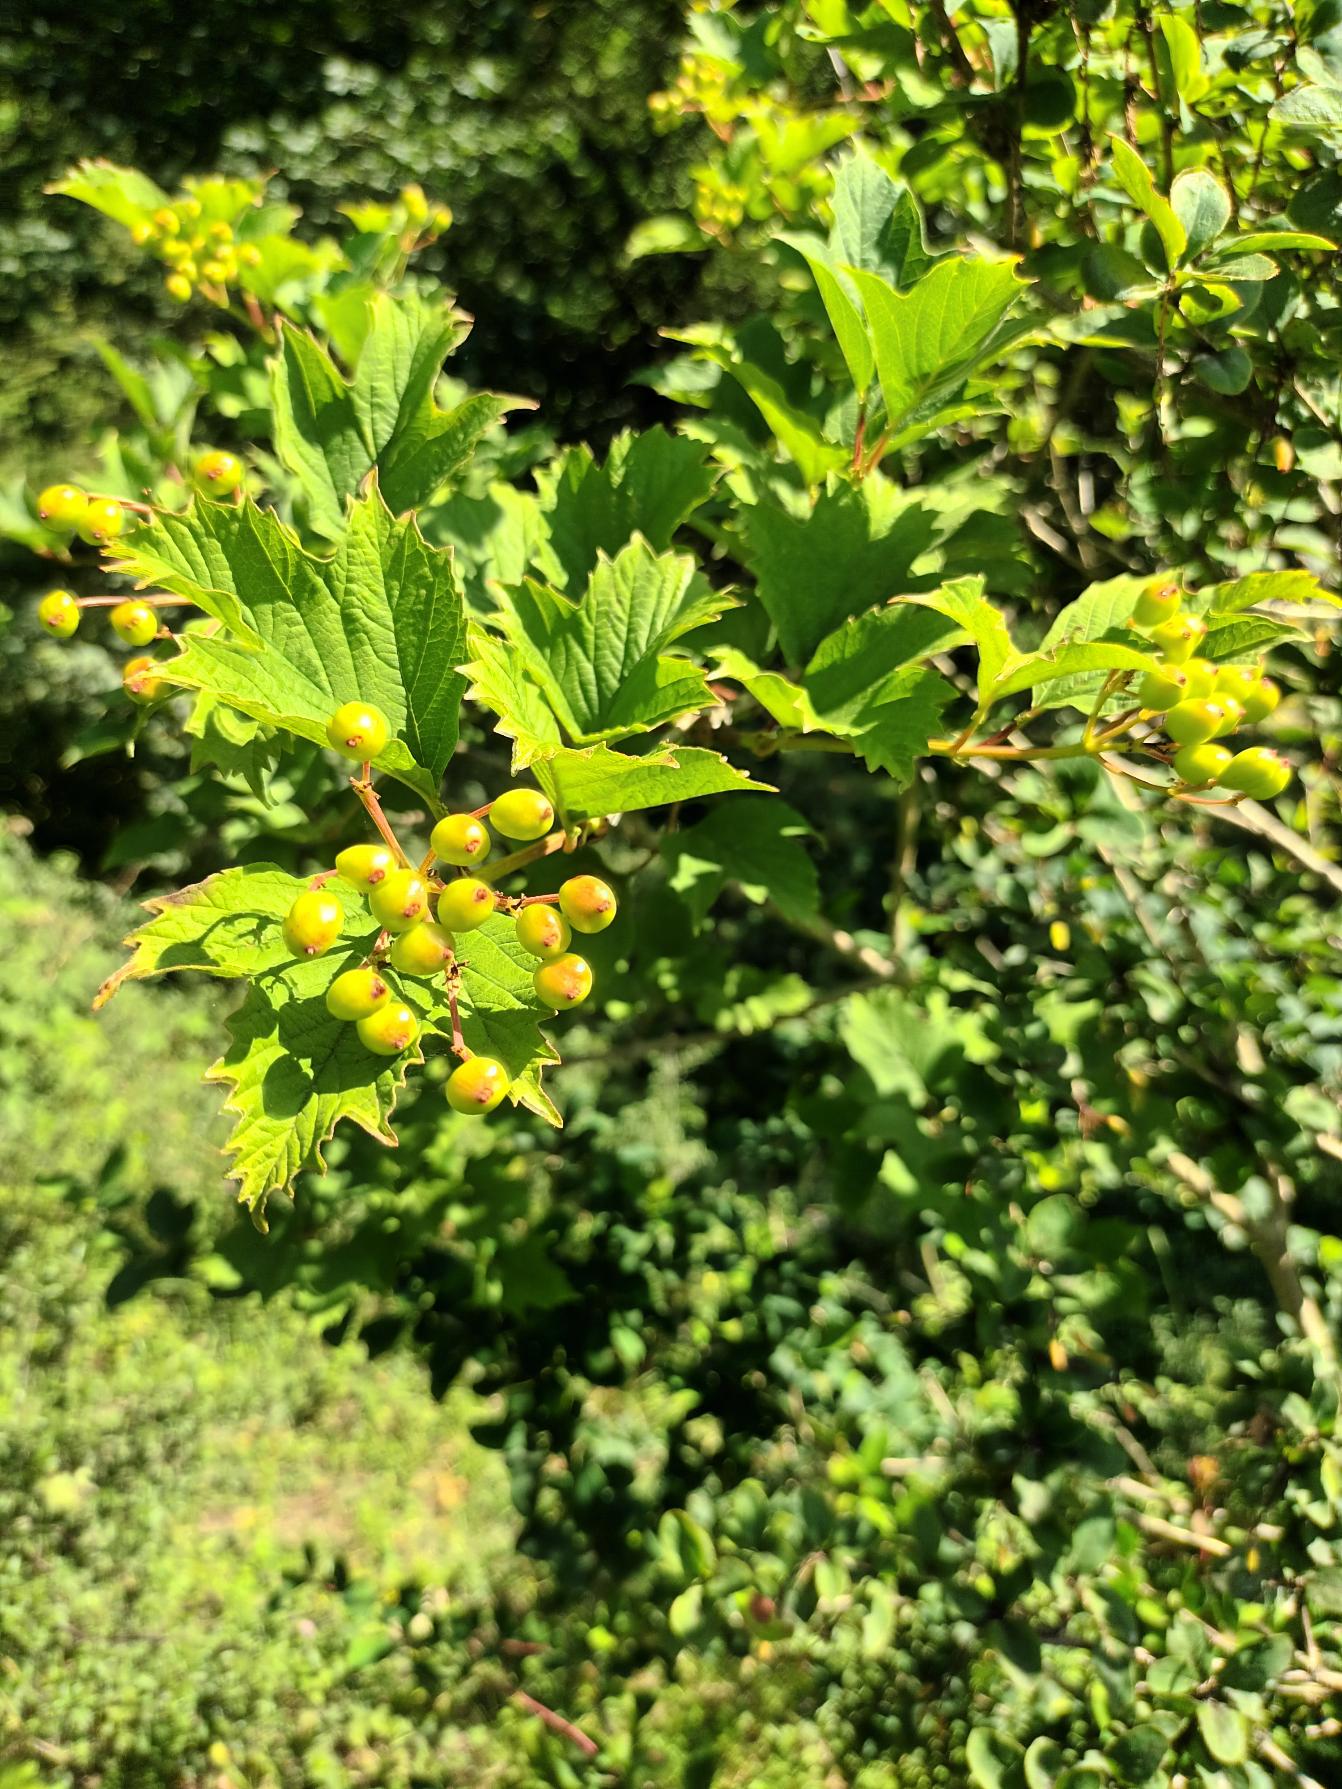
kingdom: Plantae
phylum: Tracheophyta
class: Magnoliopsida
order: Dipsacales
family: Viburnaceae
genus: Viburnum
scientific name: Viburnum opulus
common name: Kvalkved
